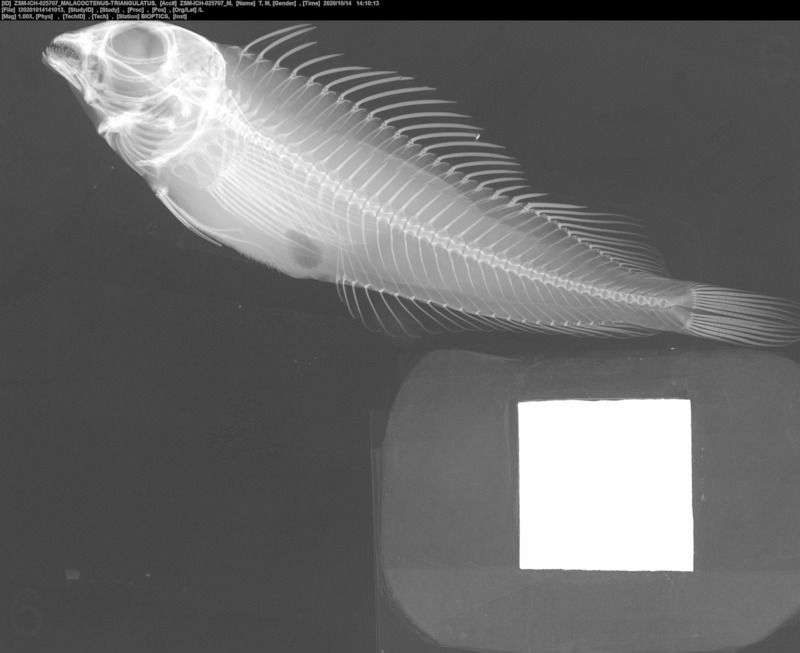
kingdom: Animalia
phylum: Chordata
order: Perciformes
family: Labrisomidae
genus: Malacoctenus
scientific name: Malacoctenus triangulatus
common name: Saddled blenny
